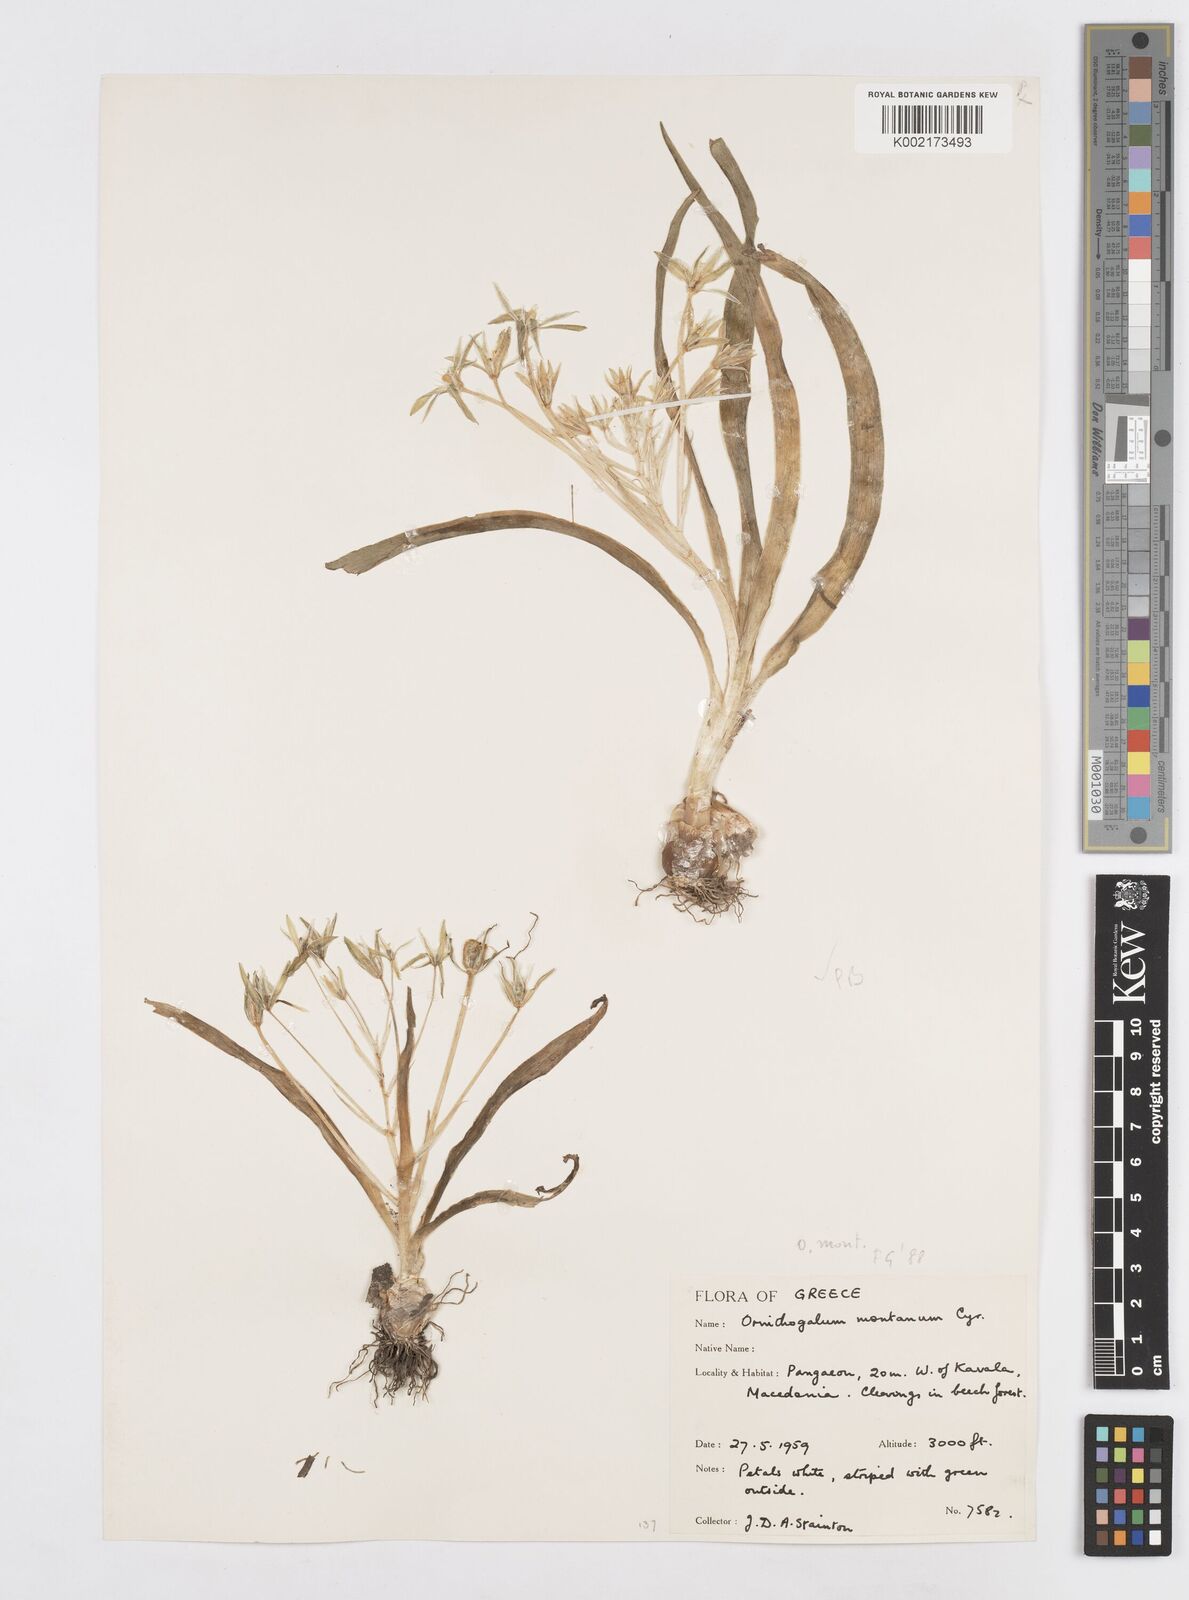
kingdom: Plantae
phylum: Tracheophyta
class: Liliopsida
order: Asparagales
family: Asparagaceae
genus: Ornithogalum
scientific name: Ornithogalum montanum
